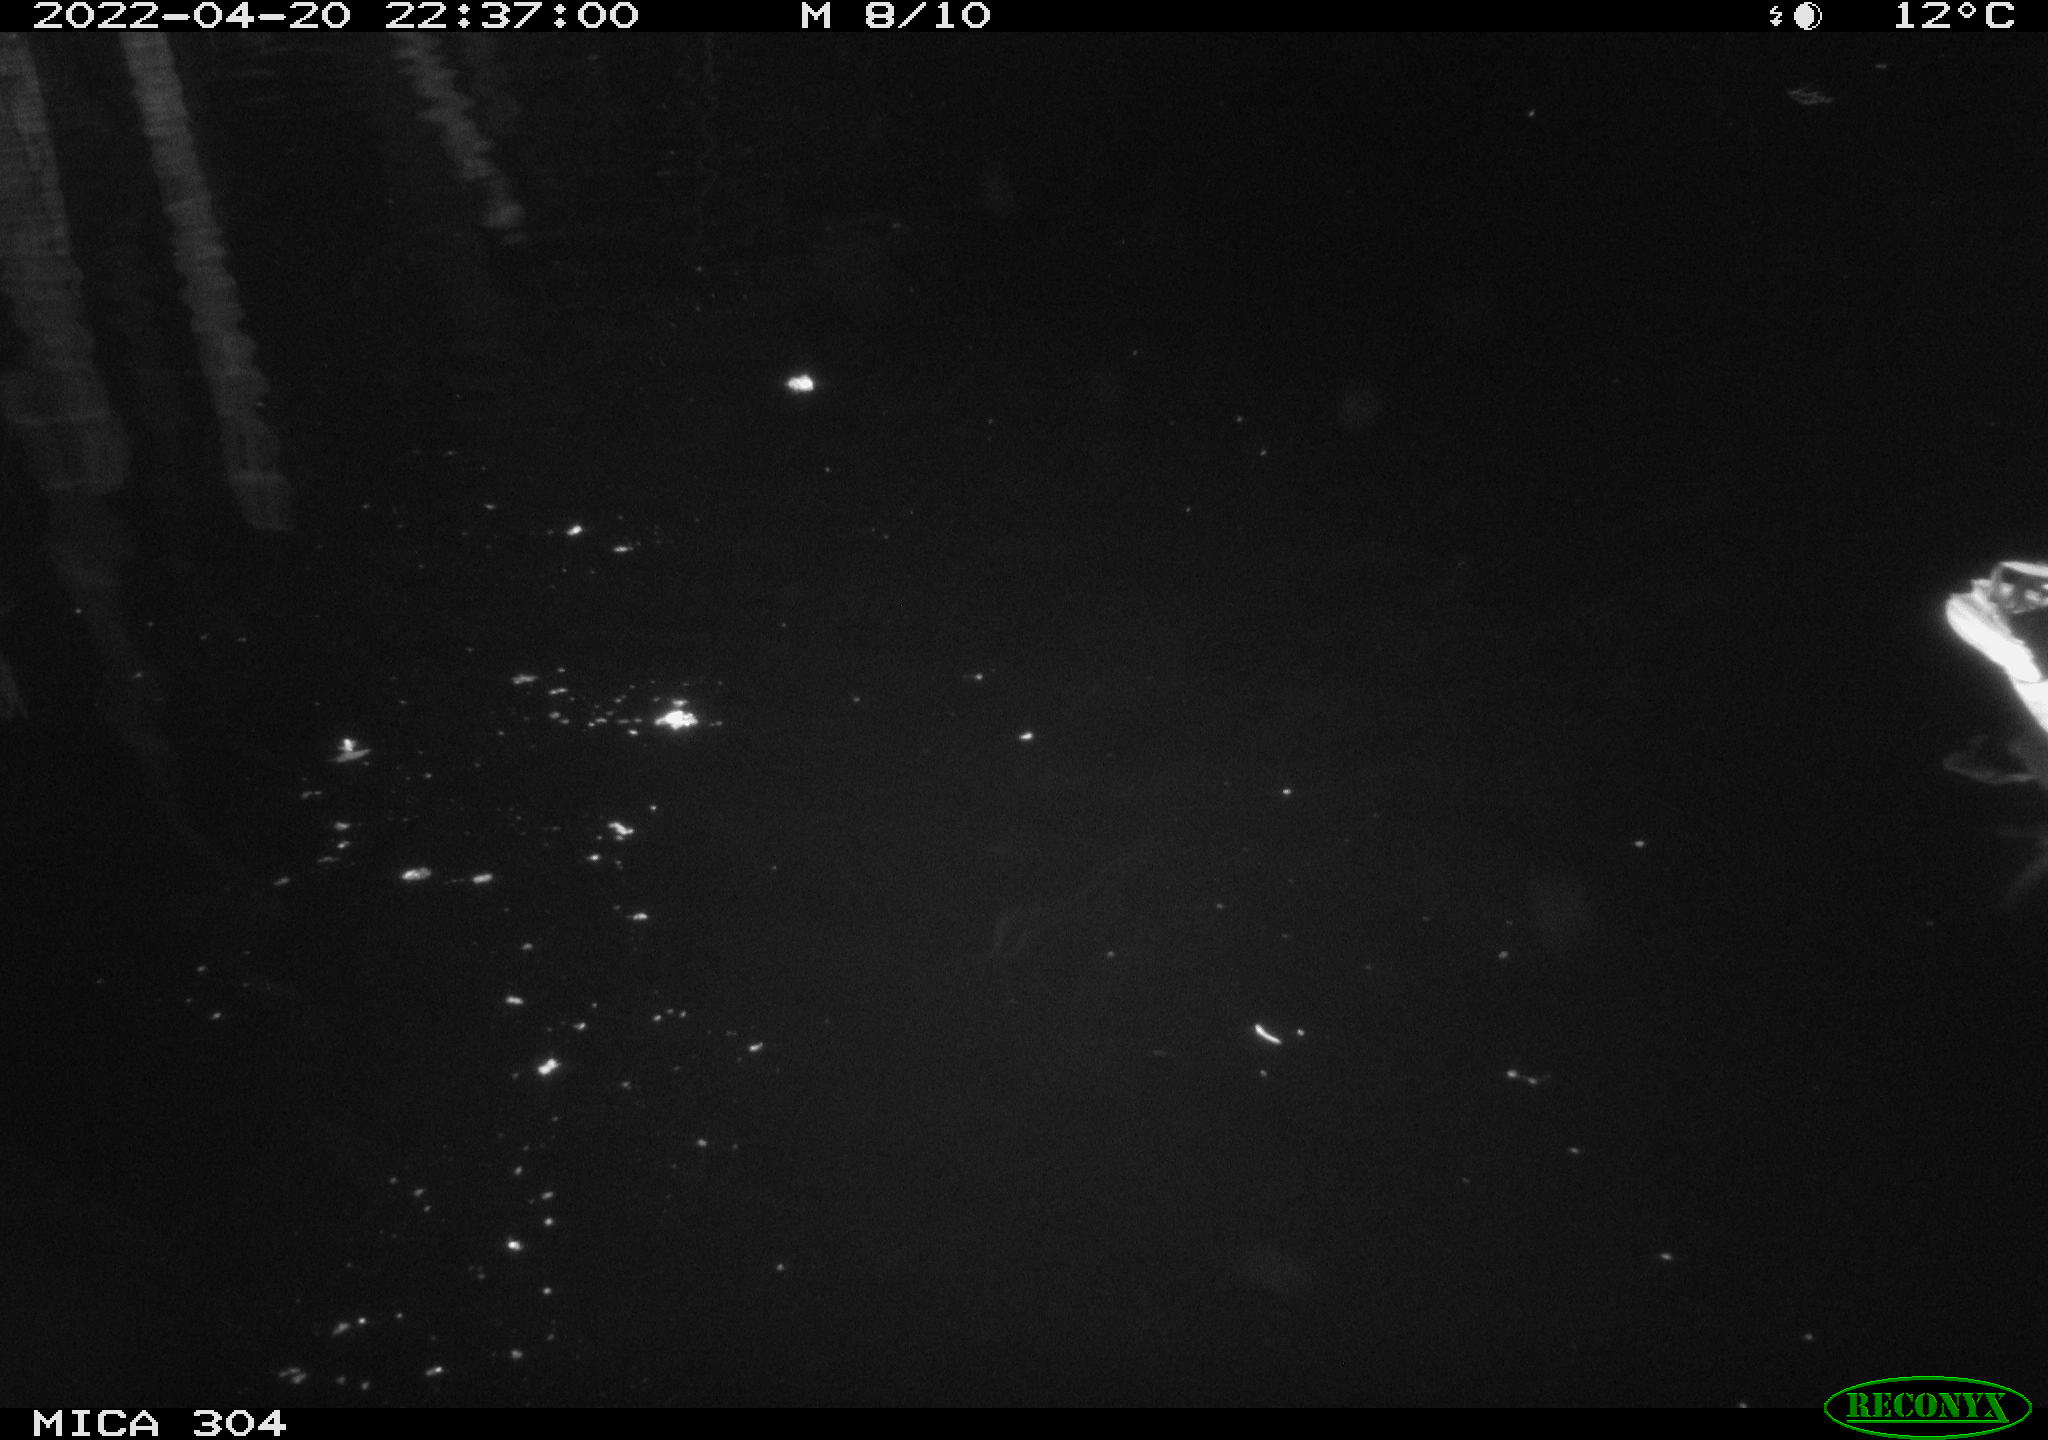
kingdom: Animalia
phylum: Chordata
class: Aves
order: Anseriformes
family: Anatidae
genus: Anas
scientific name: Anas platyrhynchos
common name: Mallard
